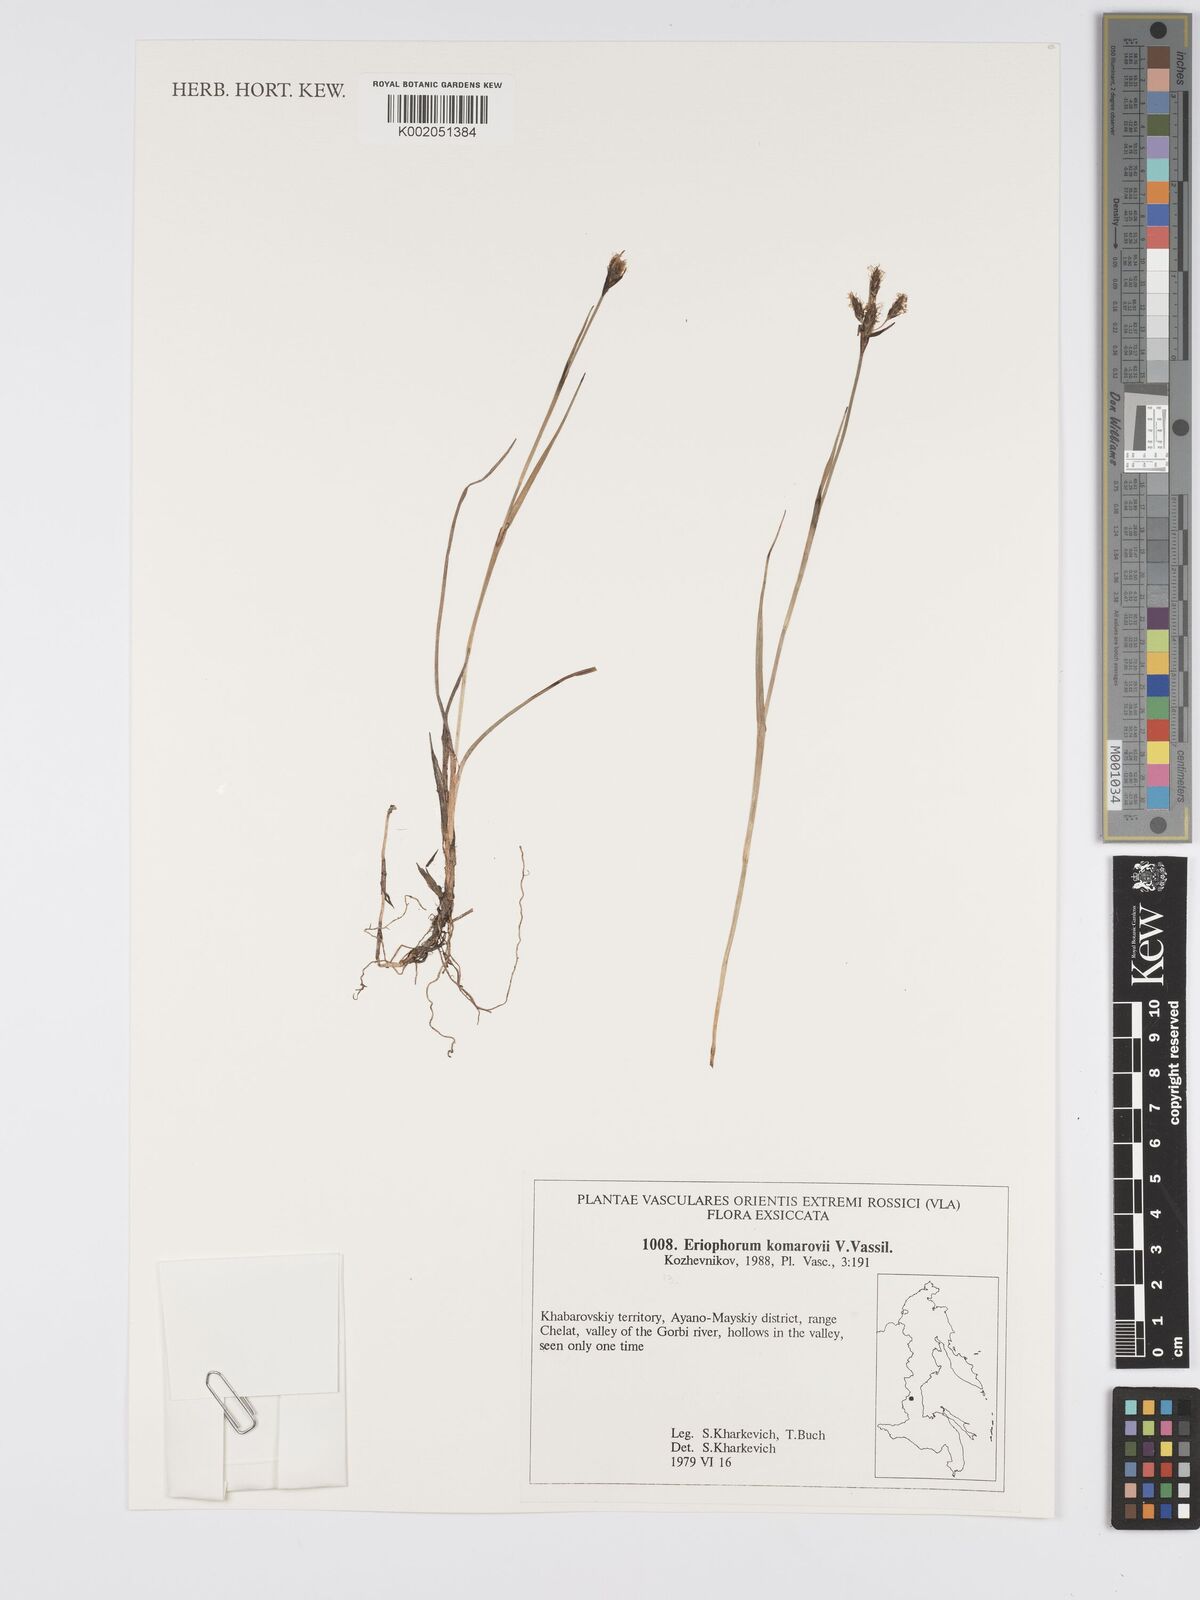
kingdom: Plantae
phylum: Tracheophyta
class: Liliopsida
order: Poales
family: Cyperaceae
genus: Eriophorum
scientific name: Eriophorum angustifolium
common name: Common cottongrass
